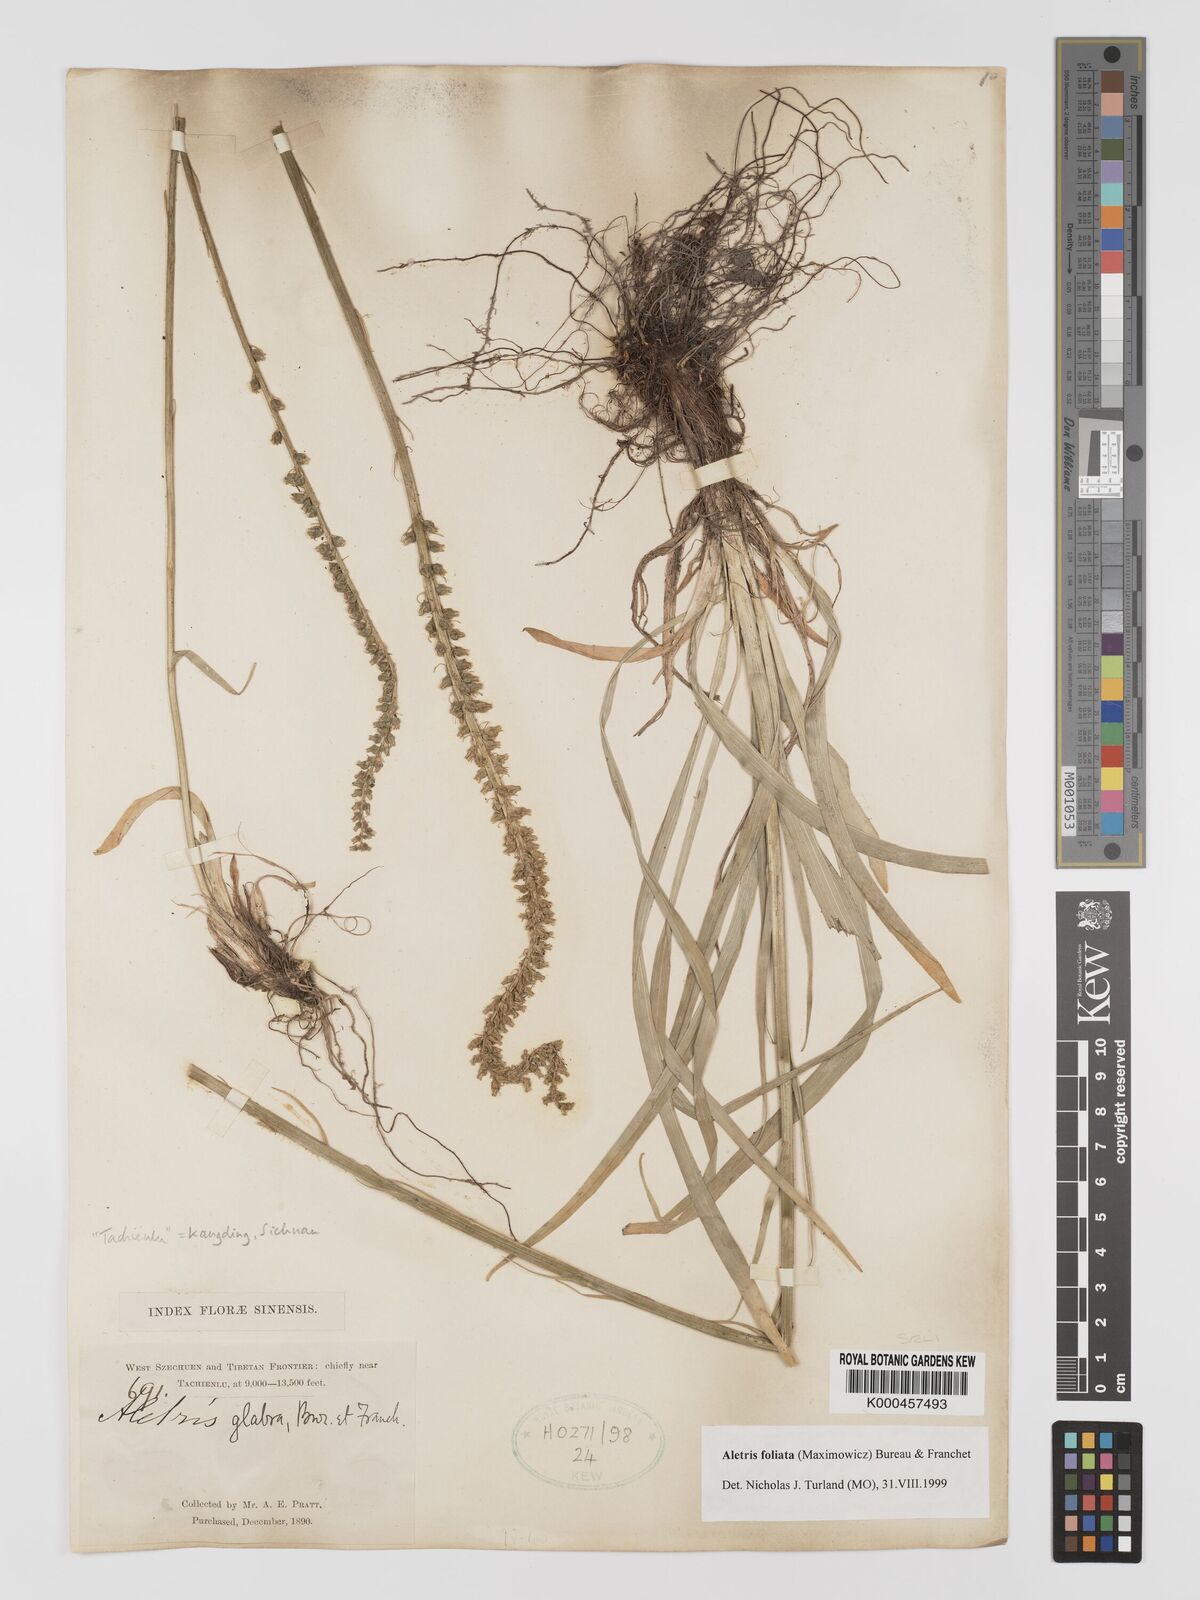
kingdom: Plantae
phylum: Tracheophyta
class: Liliopsida
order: Dioscoreales
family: Nartheciaceae
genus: Aletris
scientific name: Aletris glabra
